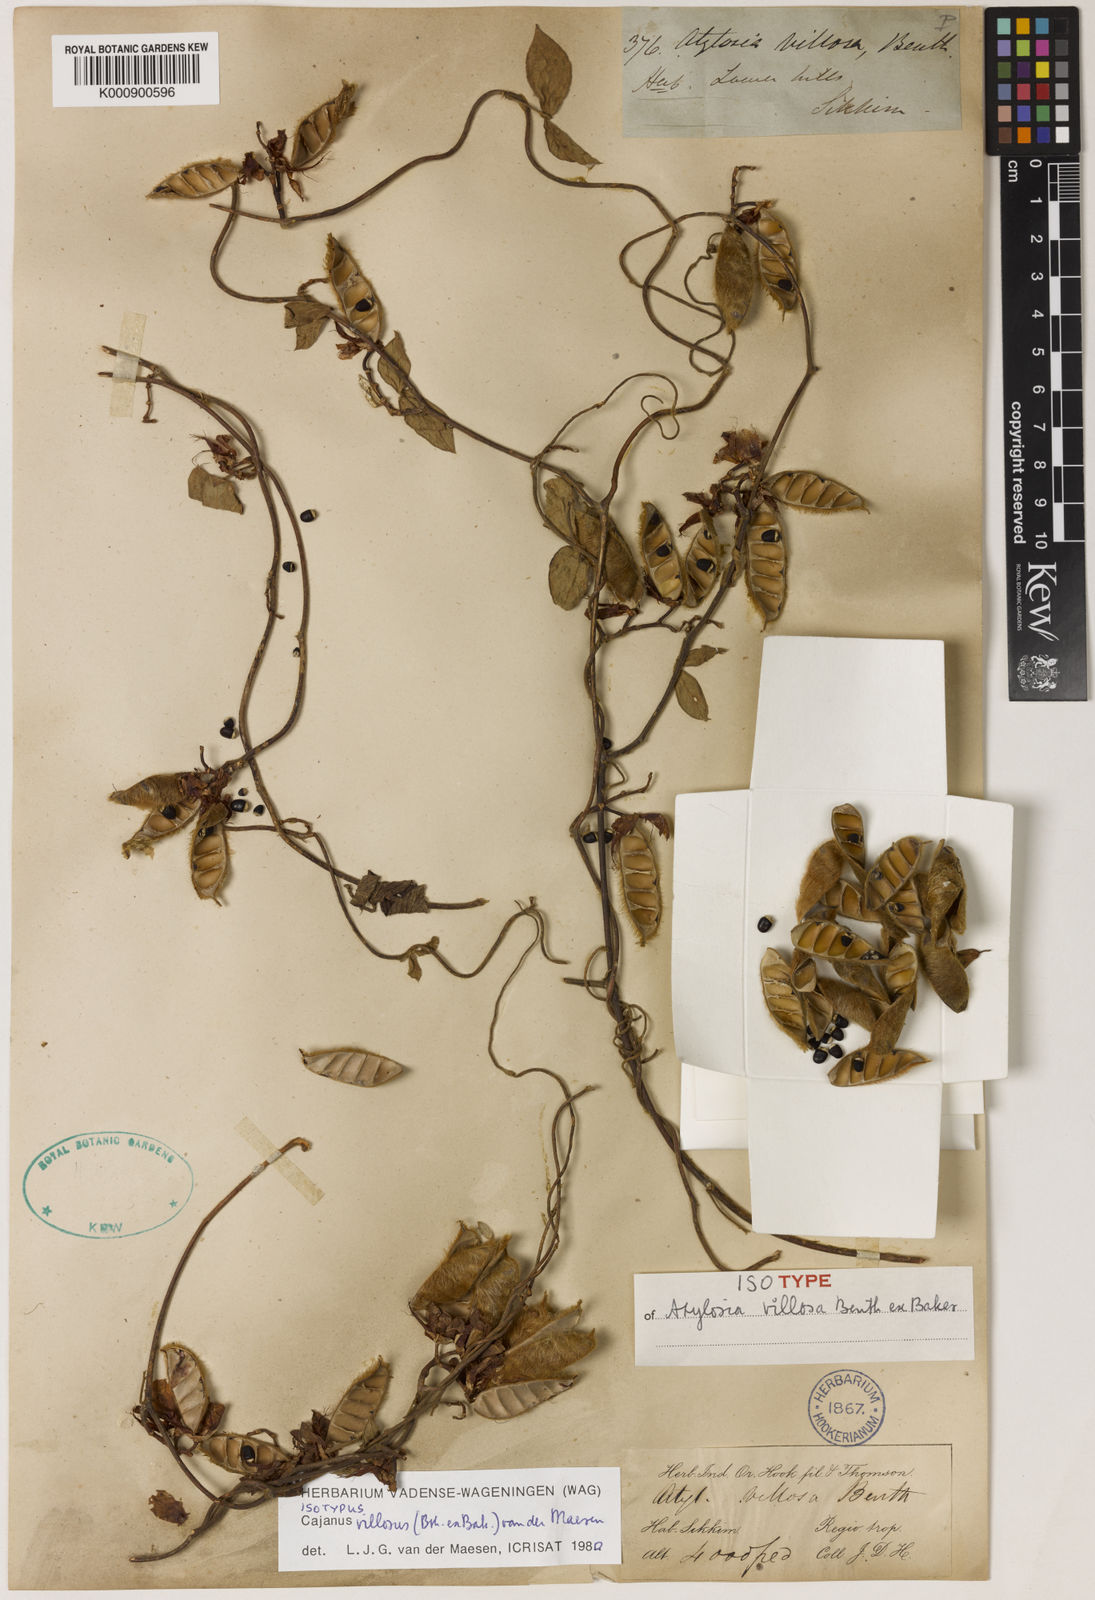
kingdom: Plantae
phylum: Tracheophyta
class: Magnoliopsida
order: Fabales
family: Fabaceae
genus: Cajanus
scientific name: Cajanus villosus
